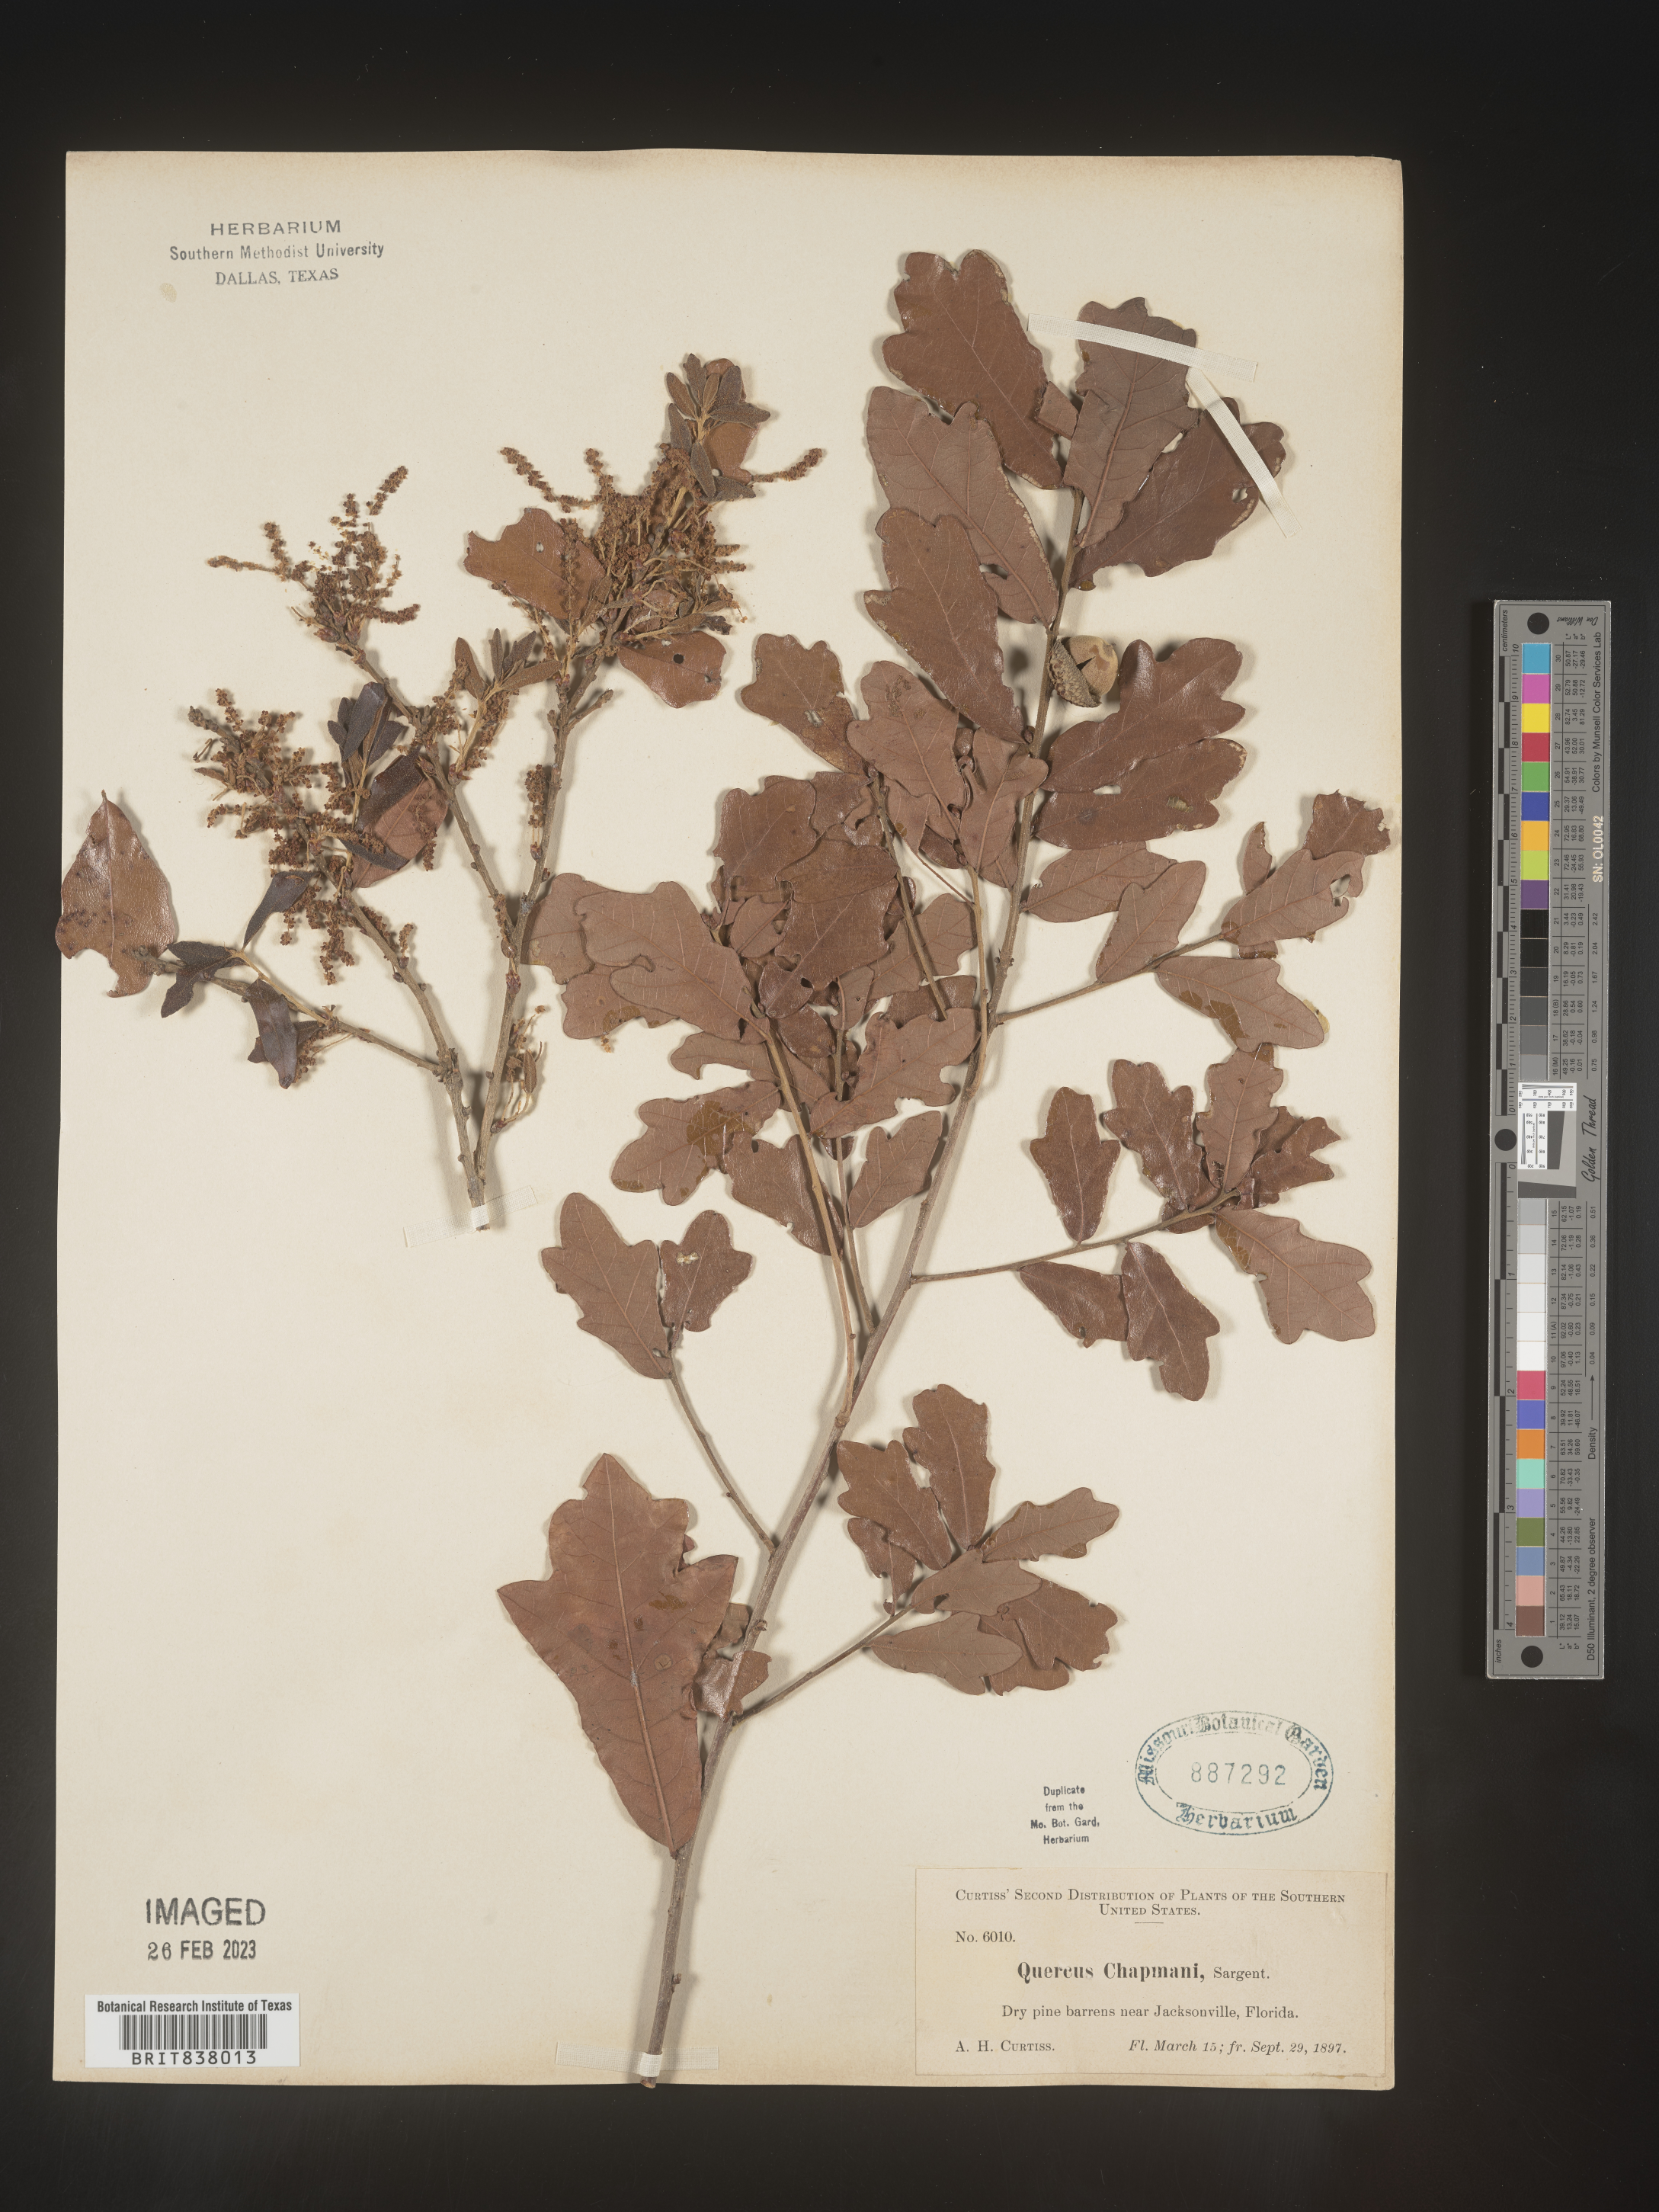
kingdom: Plantae
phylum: Tracheophyta
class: Magnoliopsida
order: Fagales
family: Fagaceae
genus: Quercus
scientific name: Quercus
